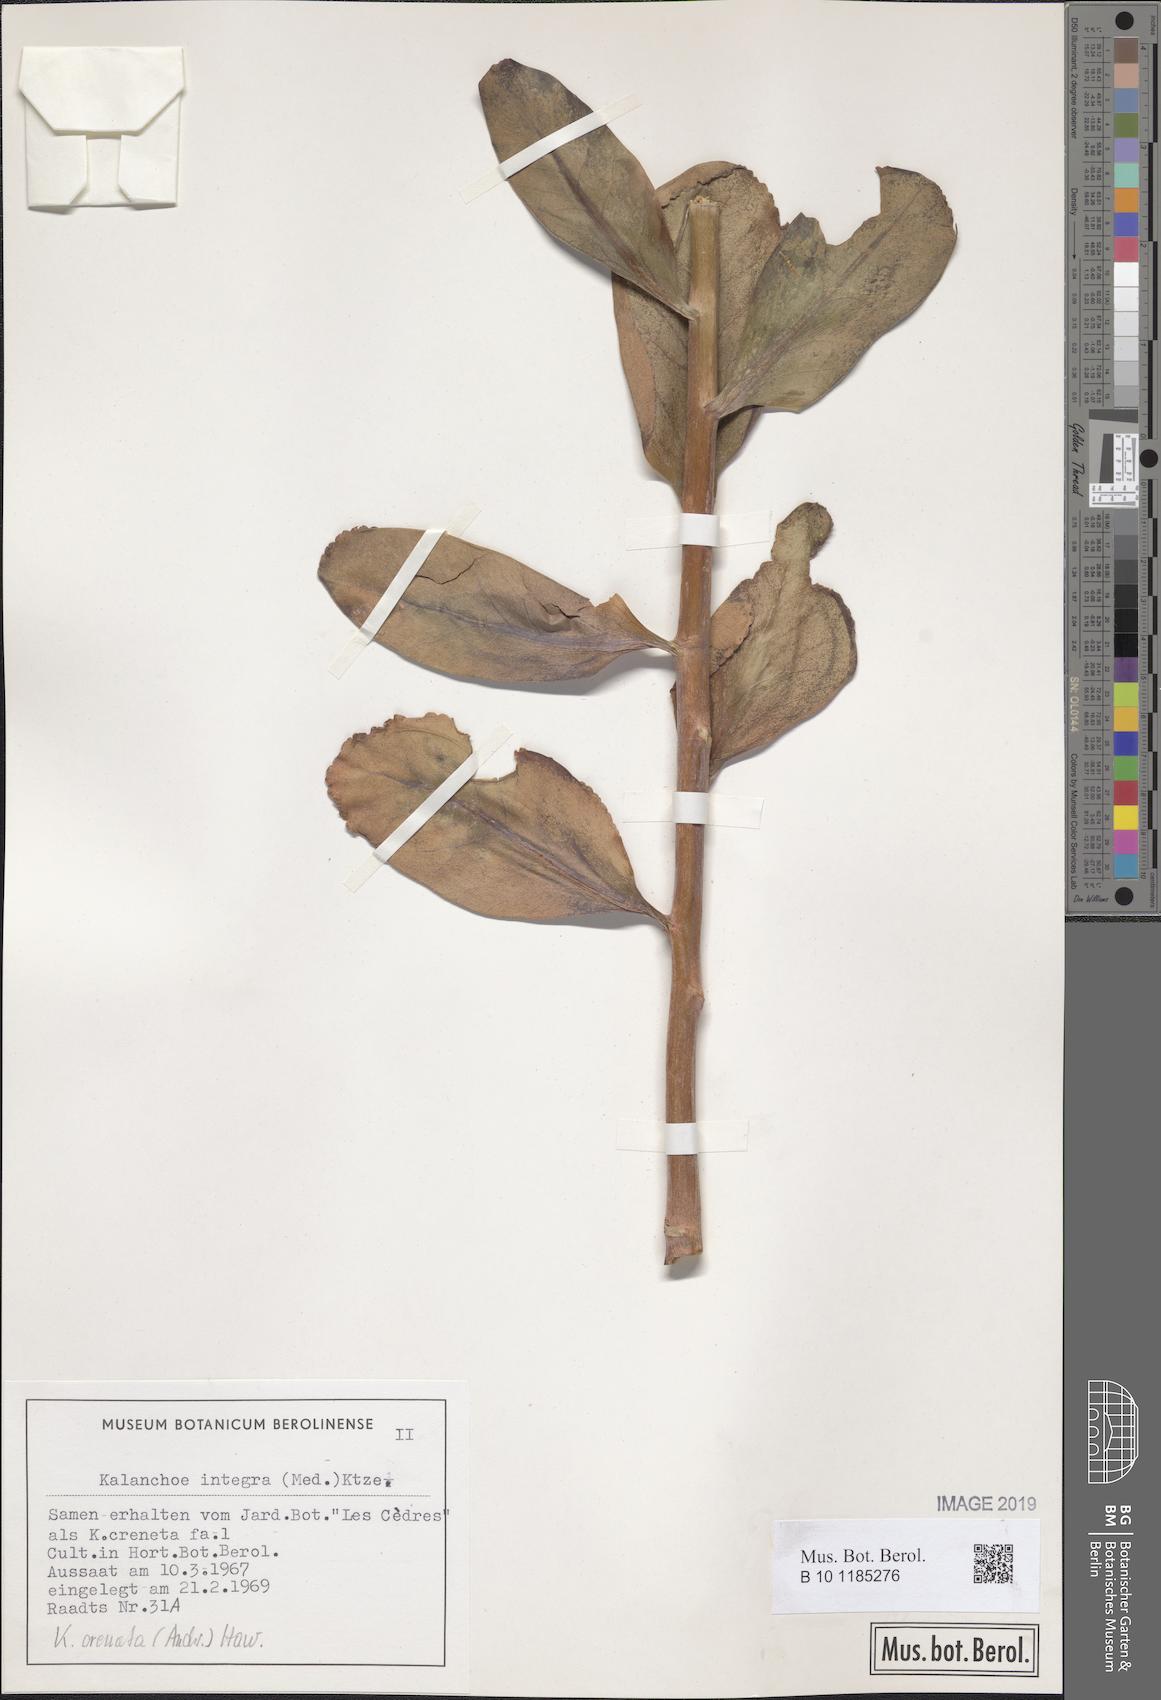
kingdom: Plantae
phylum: Tracheophyta
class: Magnoliopsida
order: Saxifragales
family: Crassulaceae
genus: Kalanchoe
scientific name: Kalanchoe crenata
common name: Neverdie
